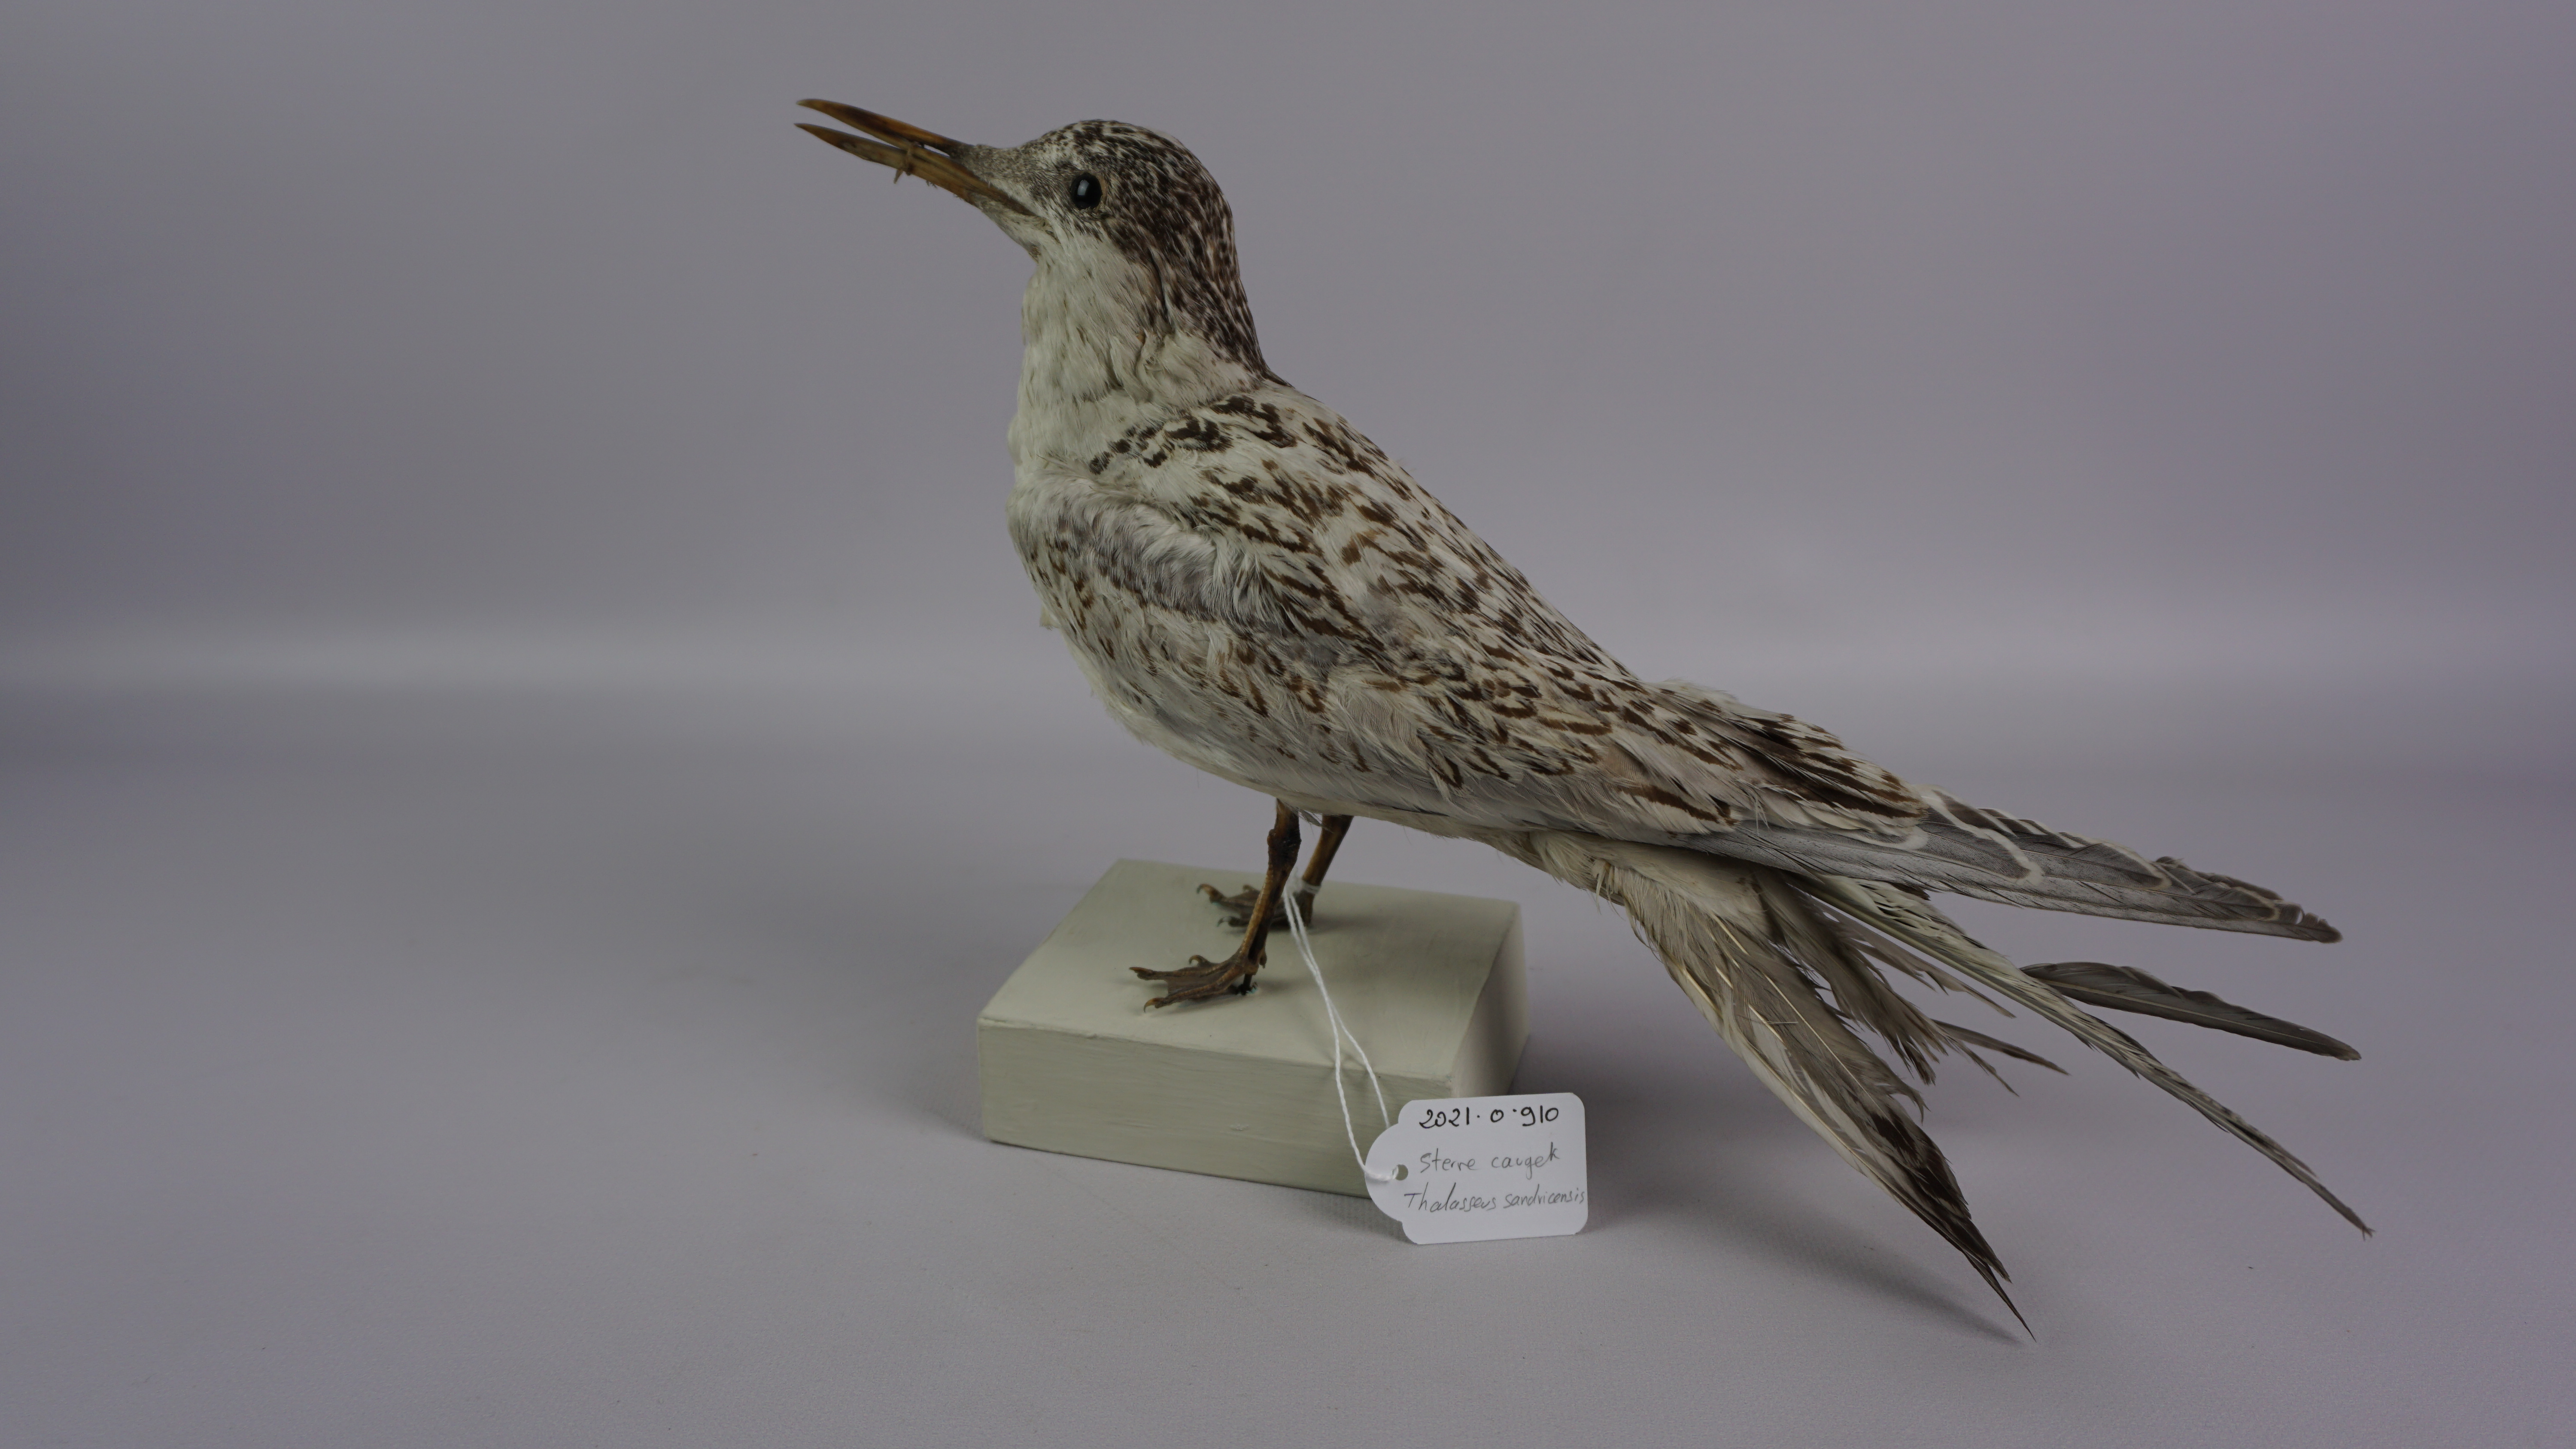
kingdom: Animalia
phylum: Chordata
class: Aves
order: Charadriiformes
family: Laridae
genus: Thalasseus
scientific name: Thalasseus sandvicensis
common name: Sandwich tern
